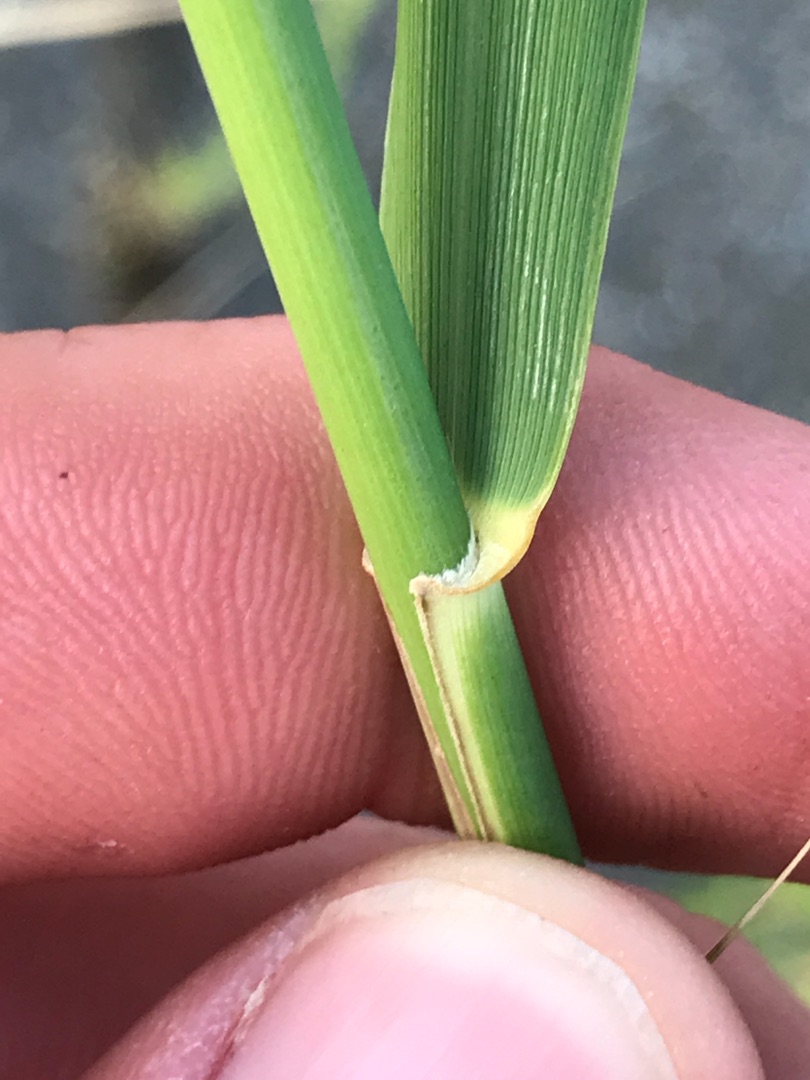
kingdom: Plantae
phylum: Tracheophyta
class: Liliopsida
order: Poales
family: Poaceae
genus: Phragmites
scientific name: Phragmites australis
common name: Tagrør
